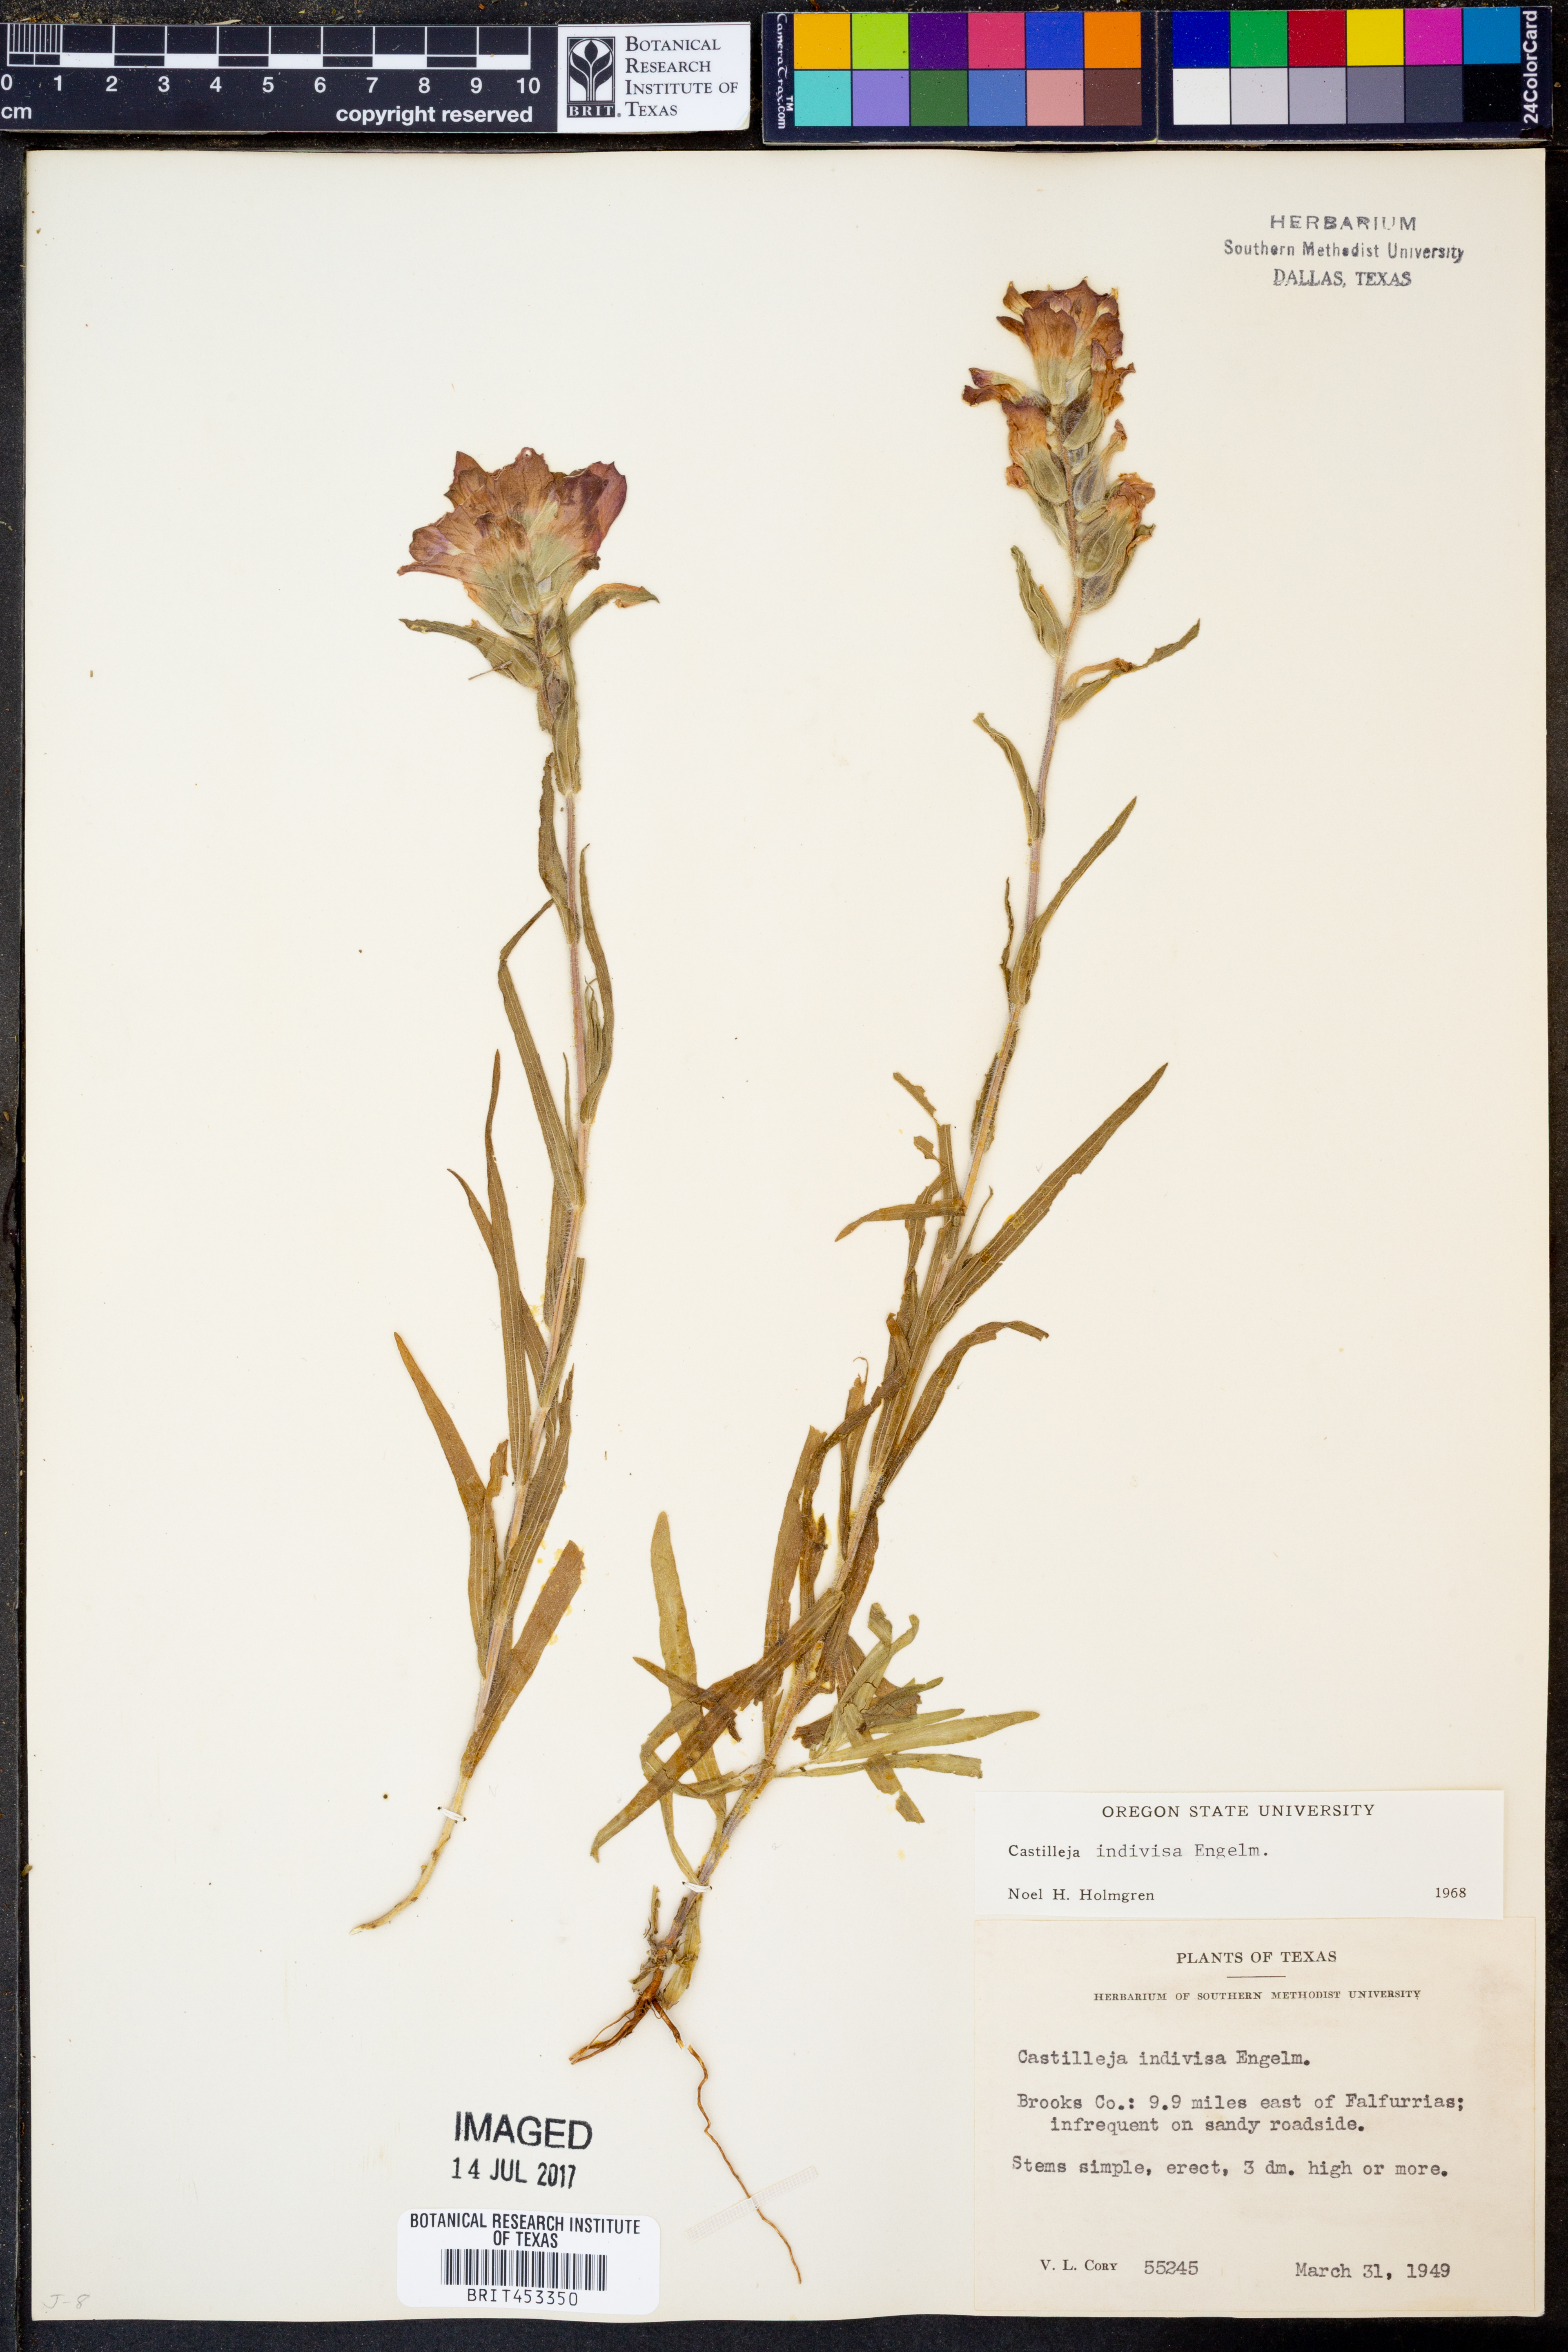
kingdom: Plantae
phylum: Tracheophyta
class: Magnoliopsida
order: Lamiales
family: Orobanchaceae
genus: Castilleja
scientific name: Castilleja indivisa
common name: Texas paintbrush
